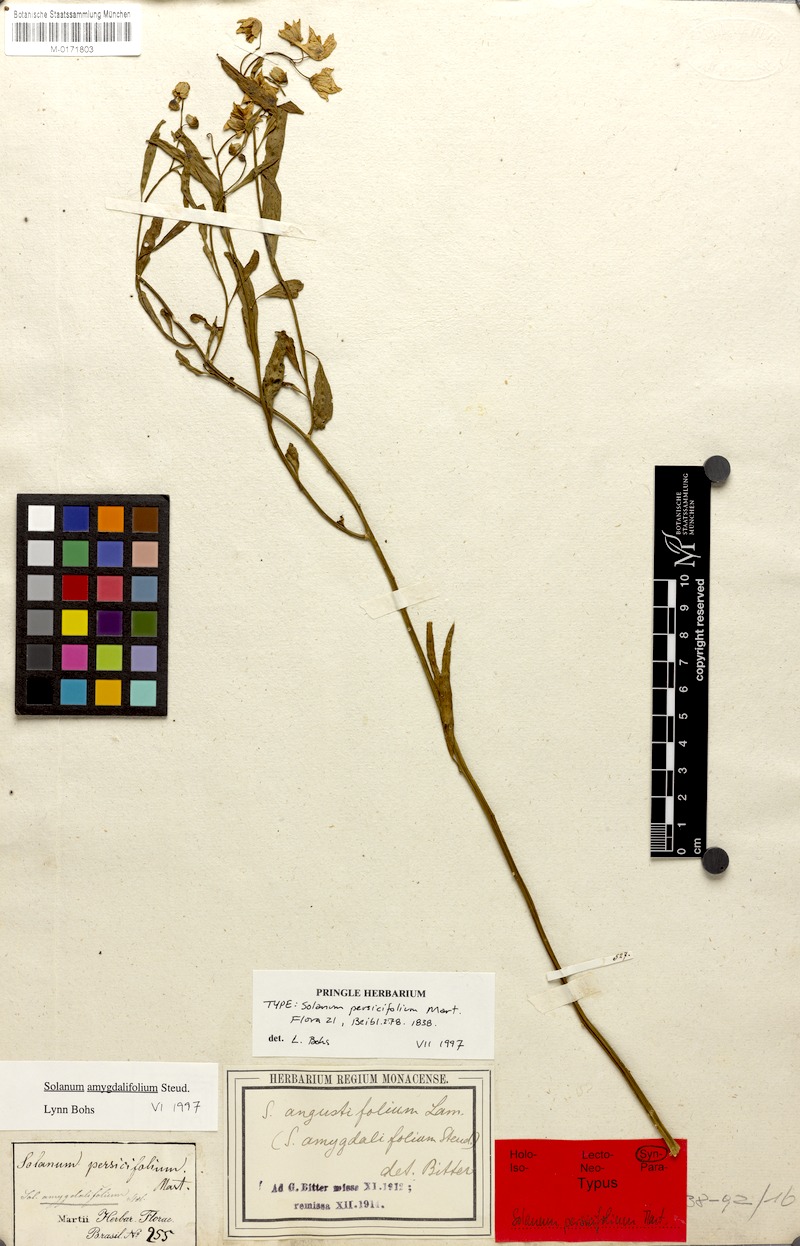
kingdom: Plantae
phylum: Tracheophyta
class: Magnoliopsida
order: Solanales
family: Solanaceae
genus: Solanum
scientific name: Solanum amygdalifolium
